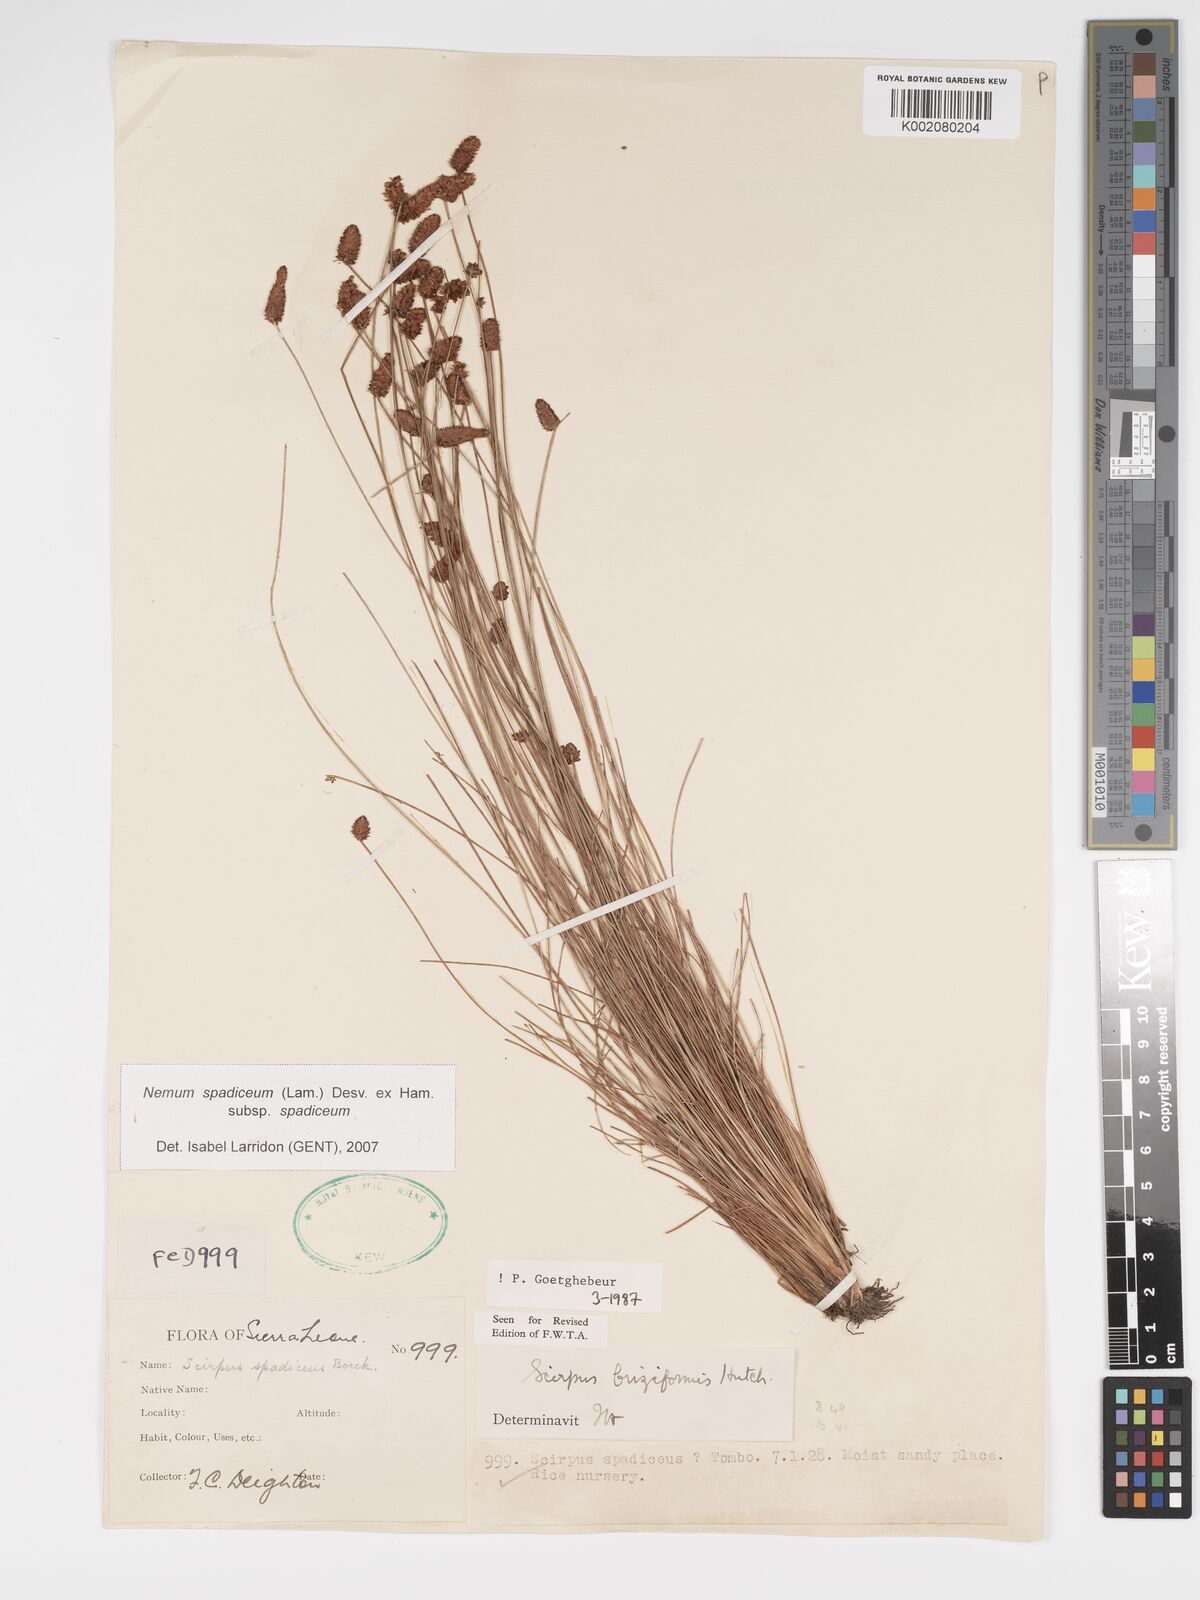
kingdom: Plantae
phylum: Tracheophyta
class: Liliopsida
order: Poales
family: Cyperaceae
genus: Bulbostylis
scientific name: Bulbostylis briziformis
